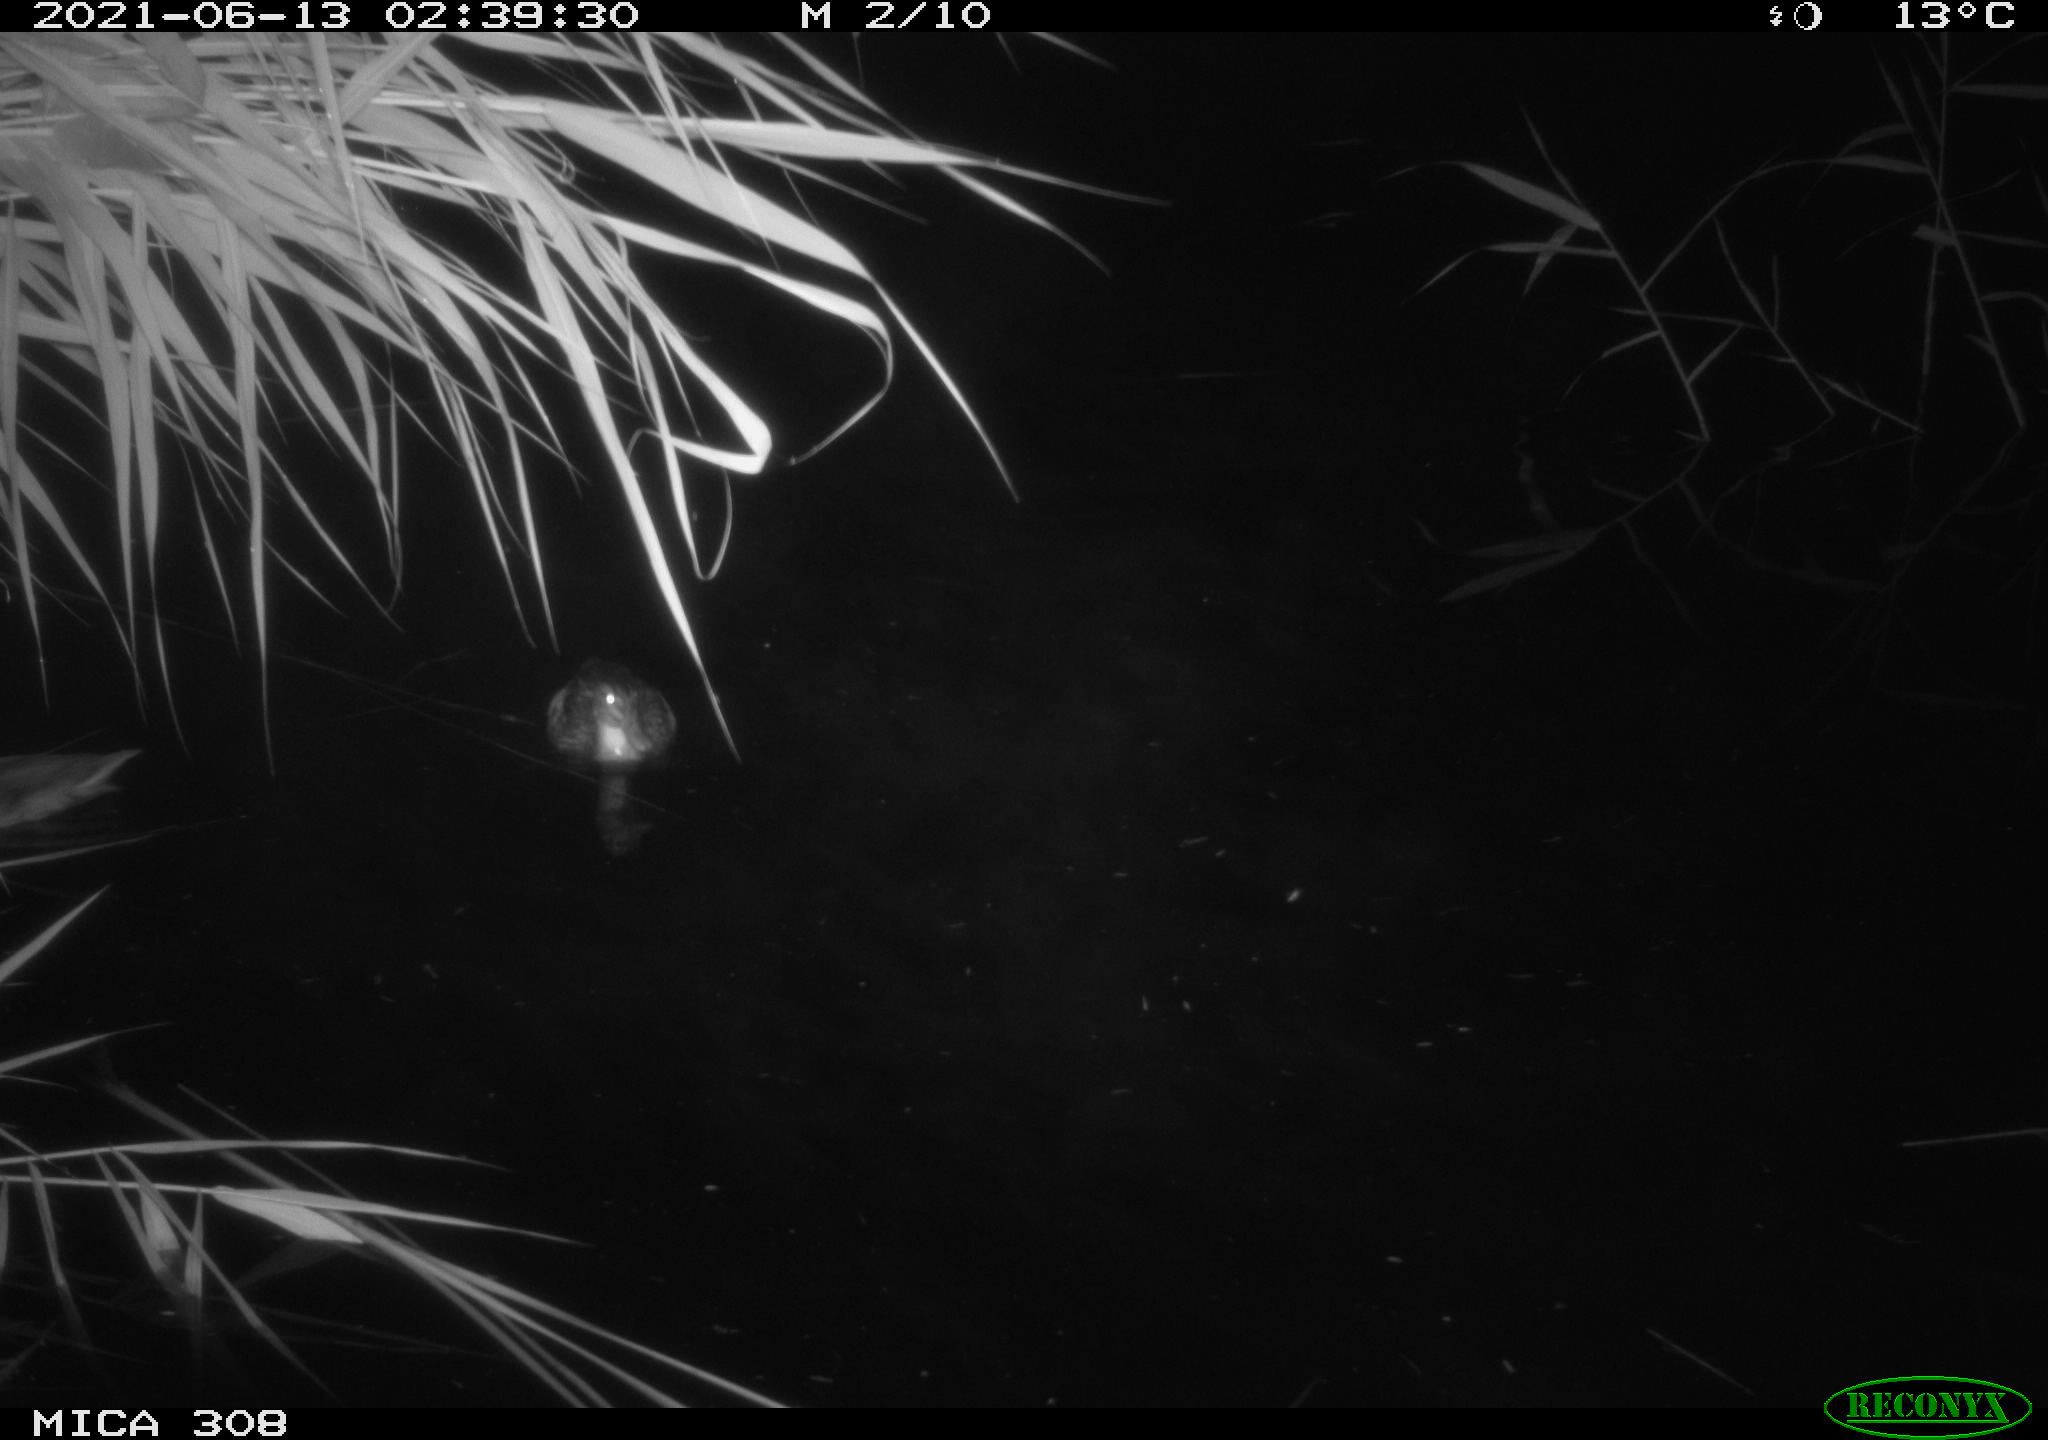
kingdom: Animalia
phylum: Chordata
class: Aves
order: Anseriformes
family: Anatidae
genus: Anas
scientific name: Anas platyrhynchos
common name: Mallard
